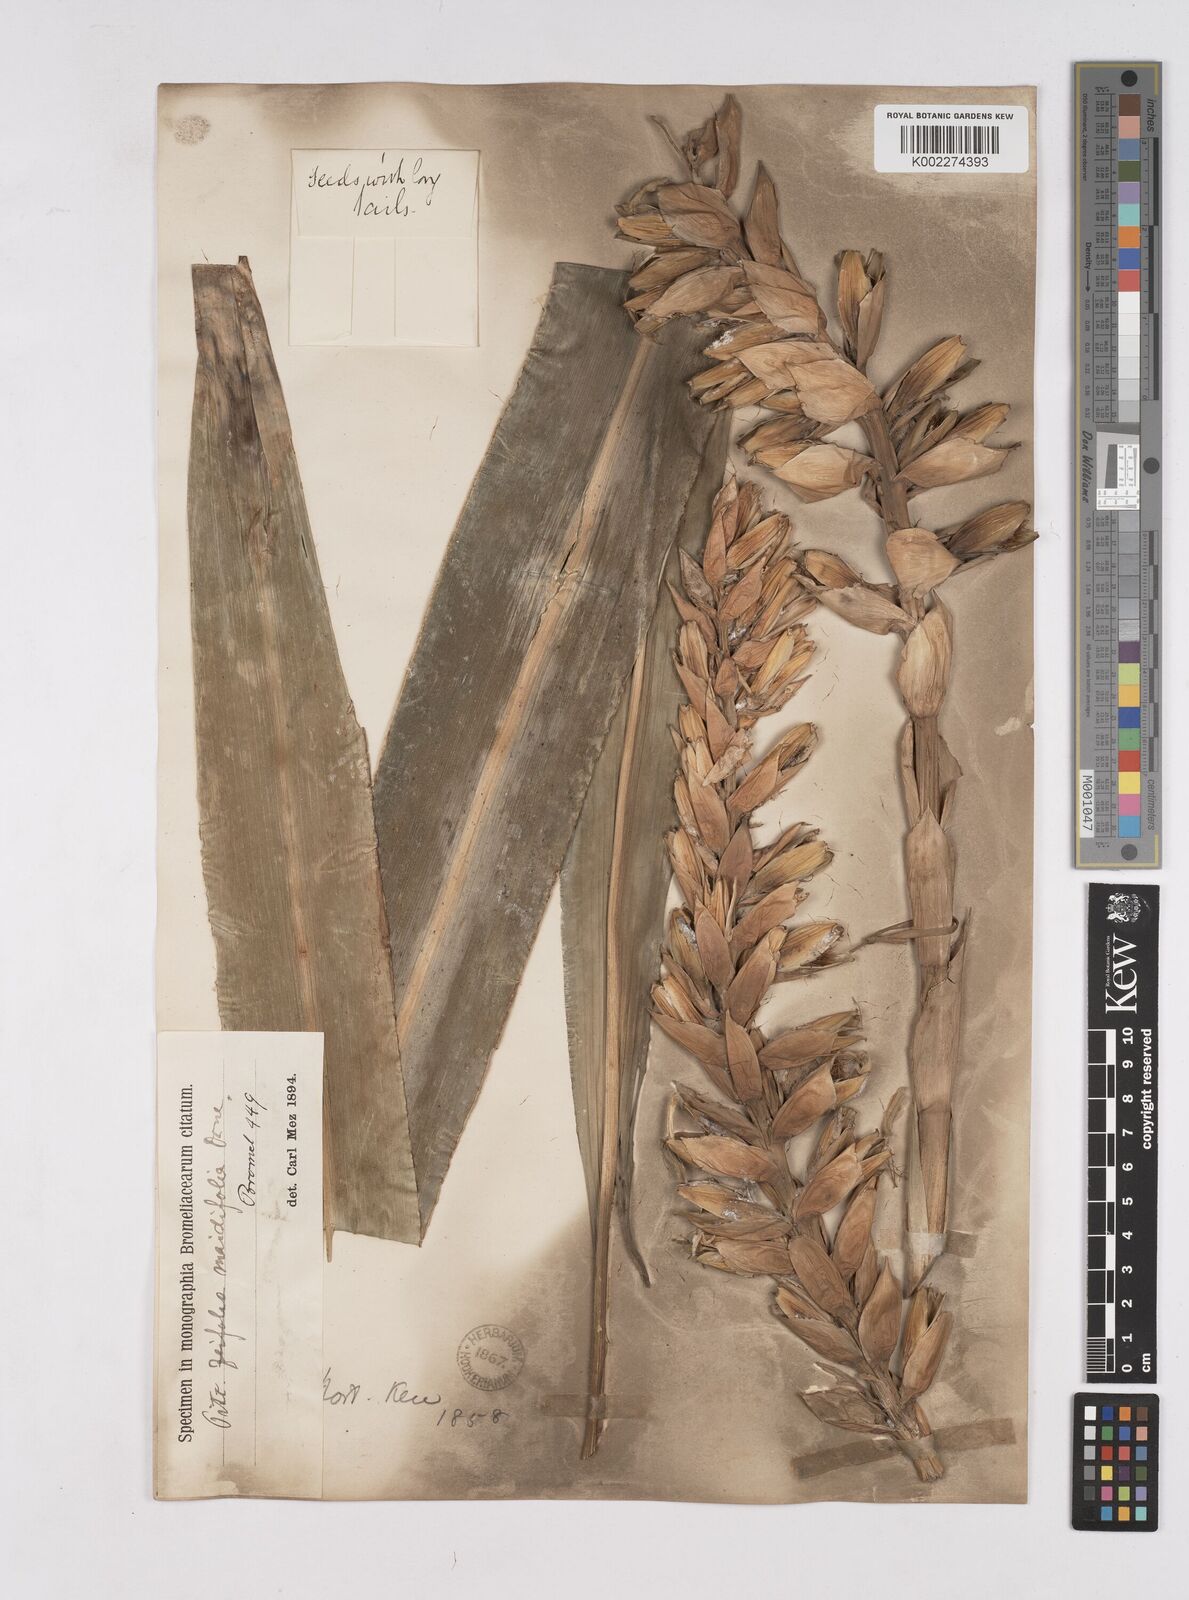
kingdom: Plantae
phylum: Tracheophyta
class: Liliopsida
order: Poales
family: Bromeliaceae
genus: Pitcairnia
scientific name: Pitcairnia
